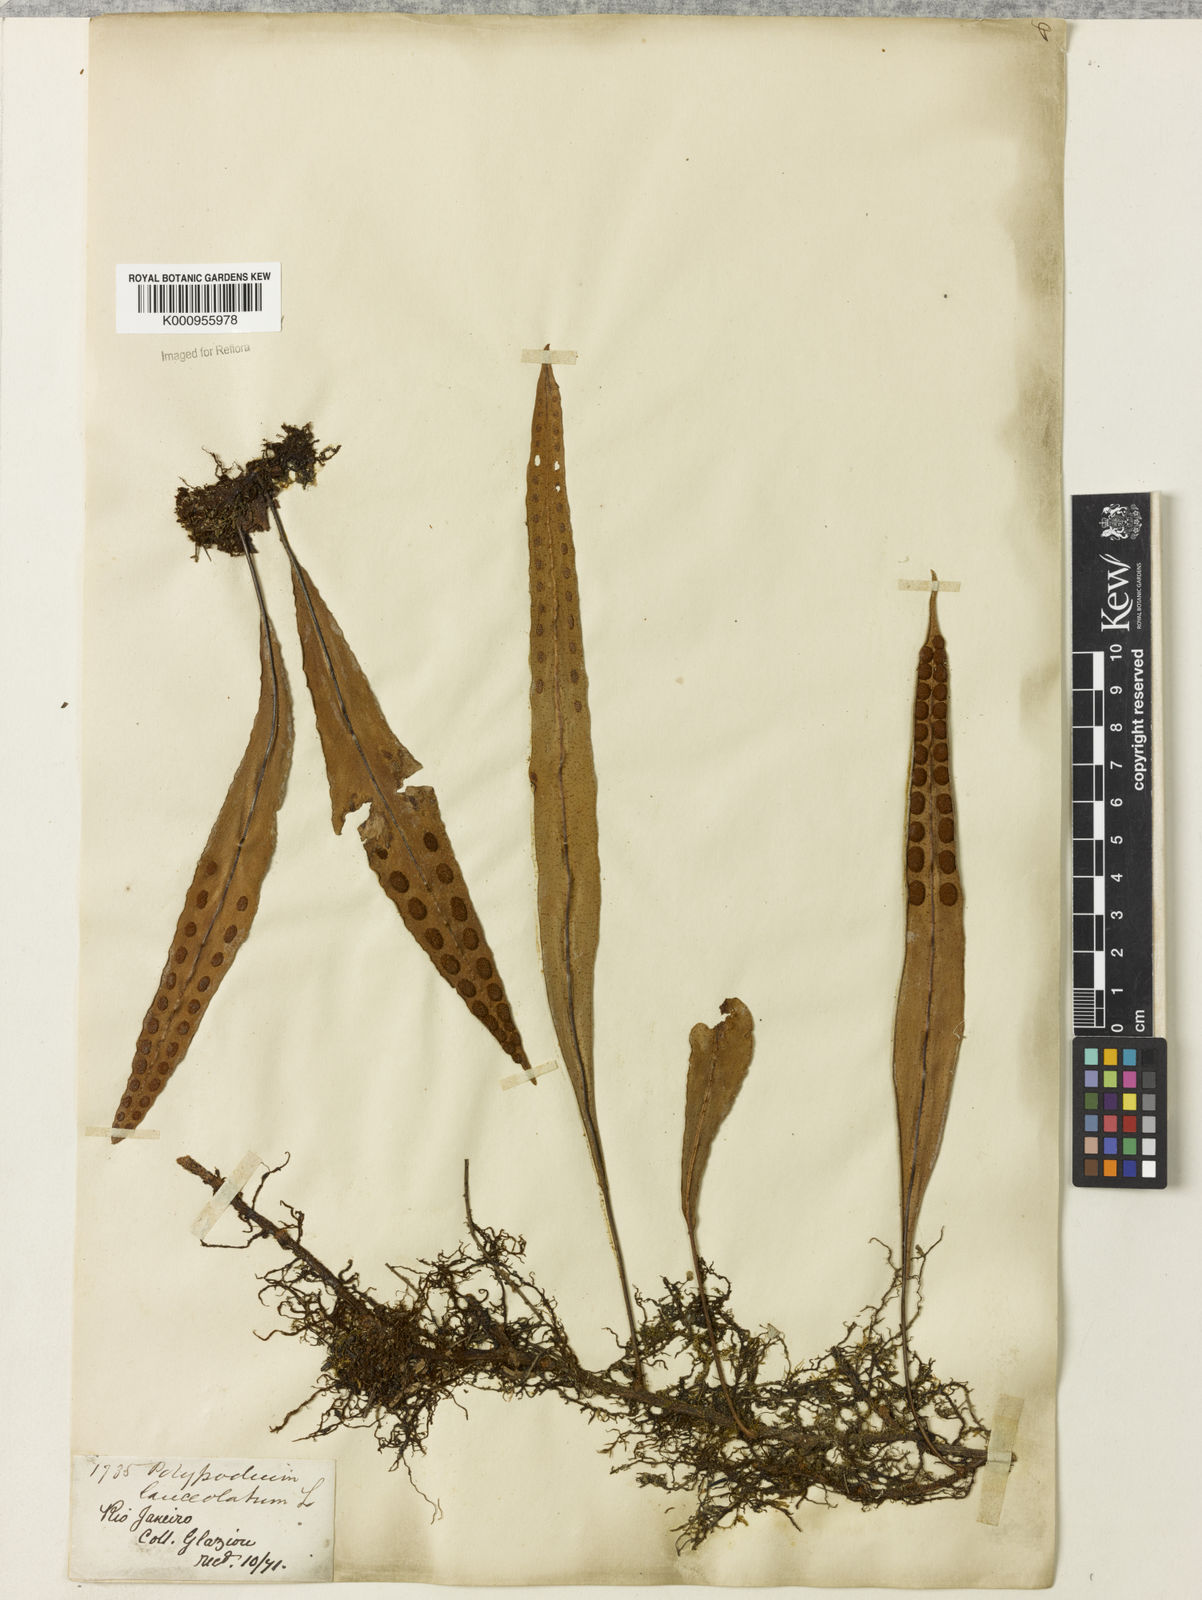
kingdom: Plantae
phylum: Tracheophyta
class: Polypodiopsida
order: Polypodiales
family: Polypodiaceae
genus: Pleopeltis
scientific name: Pleopeltis
